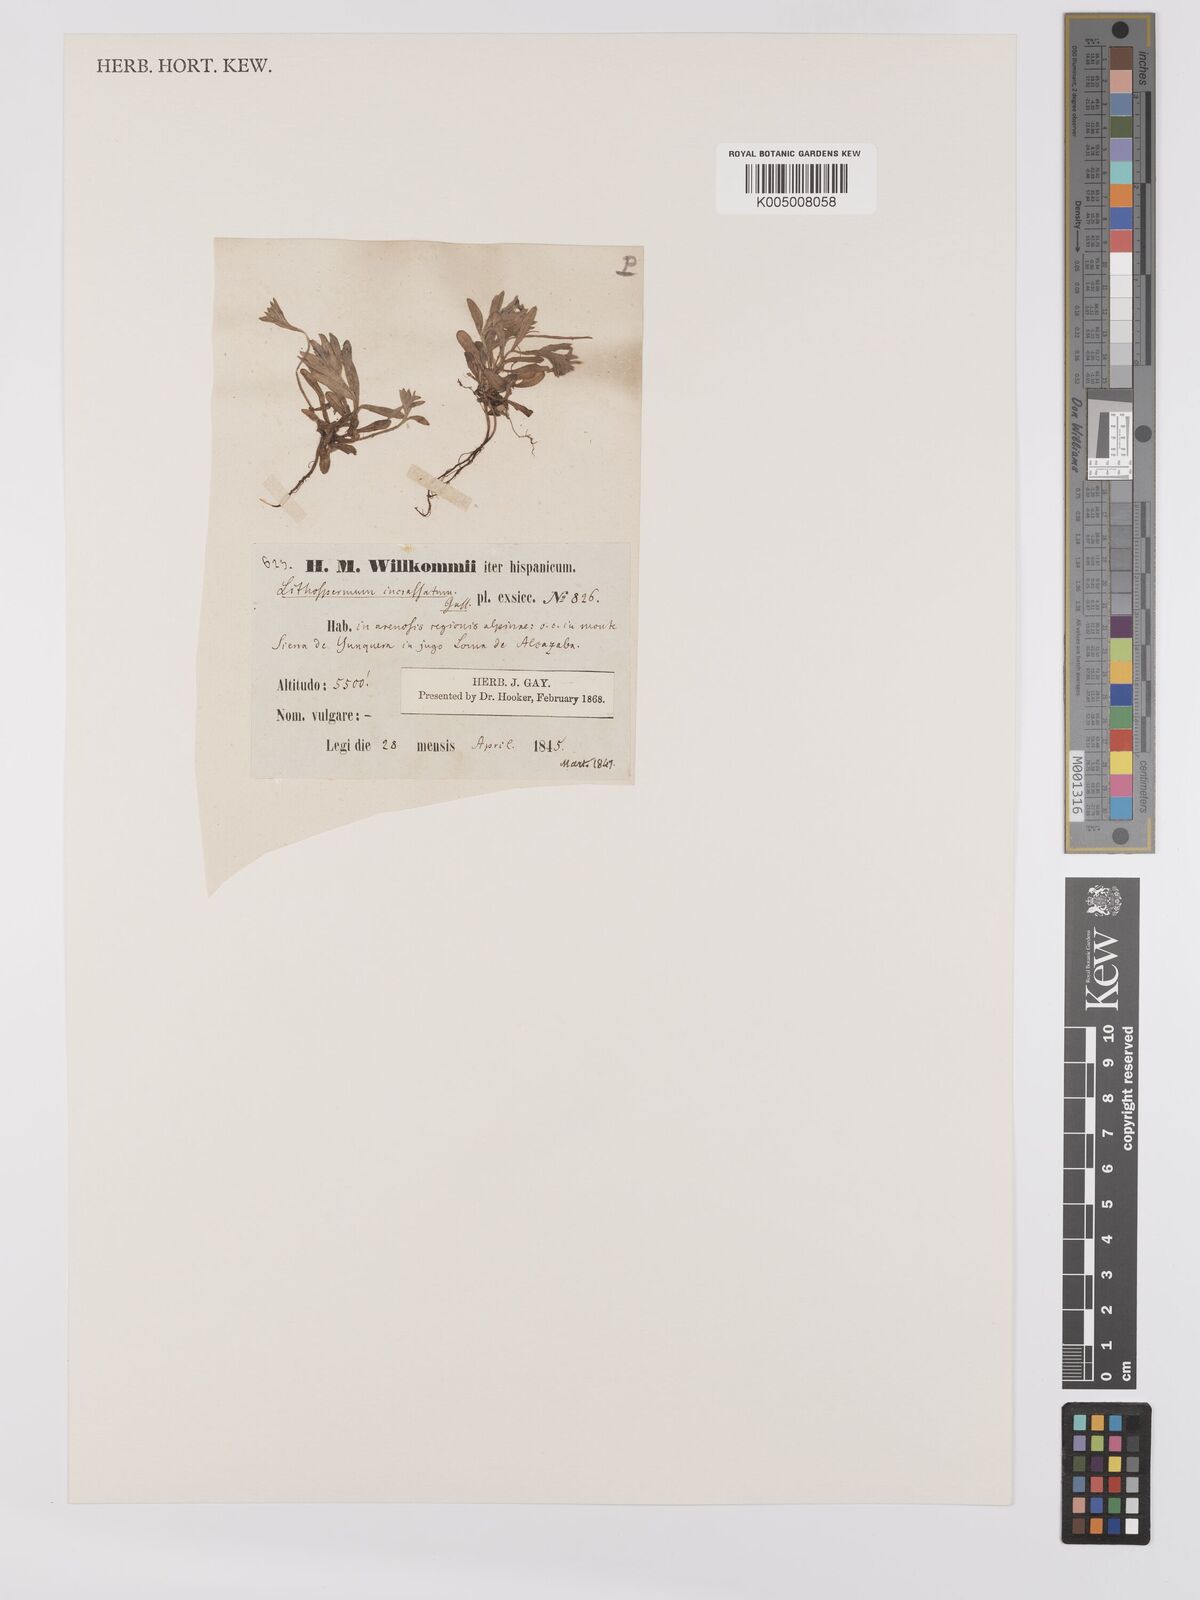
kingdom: Plantae
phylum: Tracheophyta
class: Magnoliopsida
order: Boraginales
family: Boraginaceae
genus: Buglossoides
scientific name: Buglossoides incrassata
